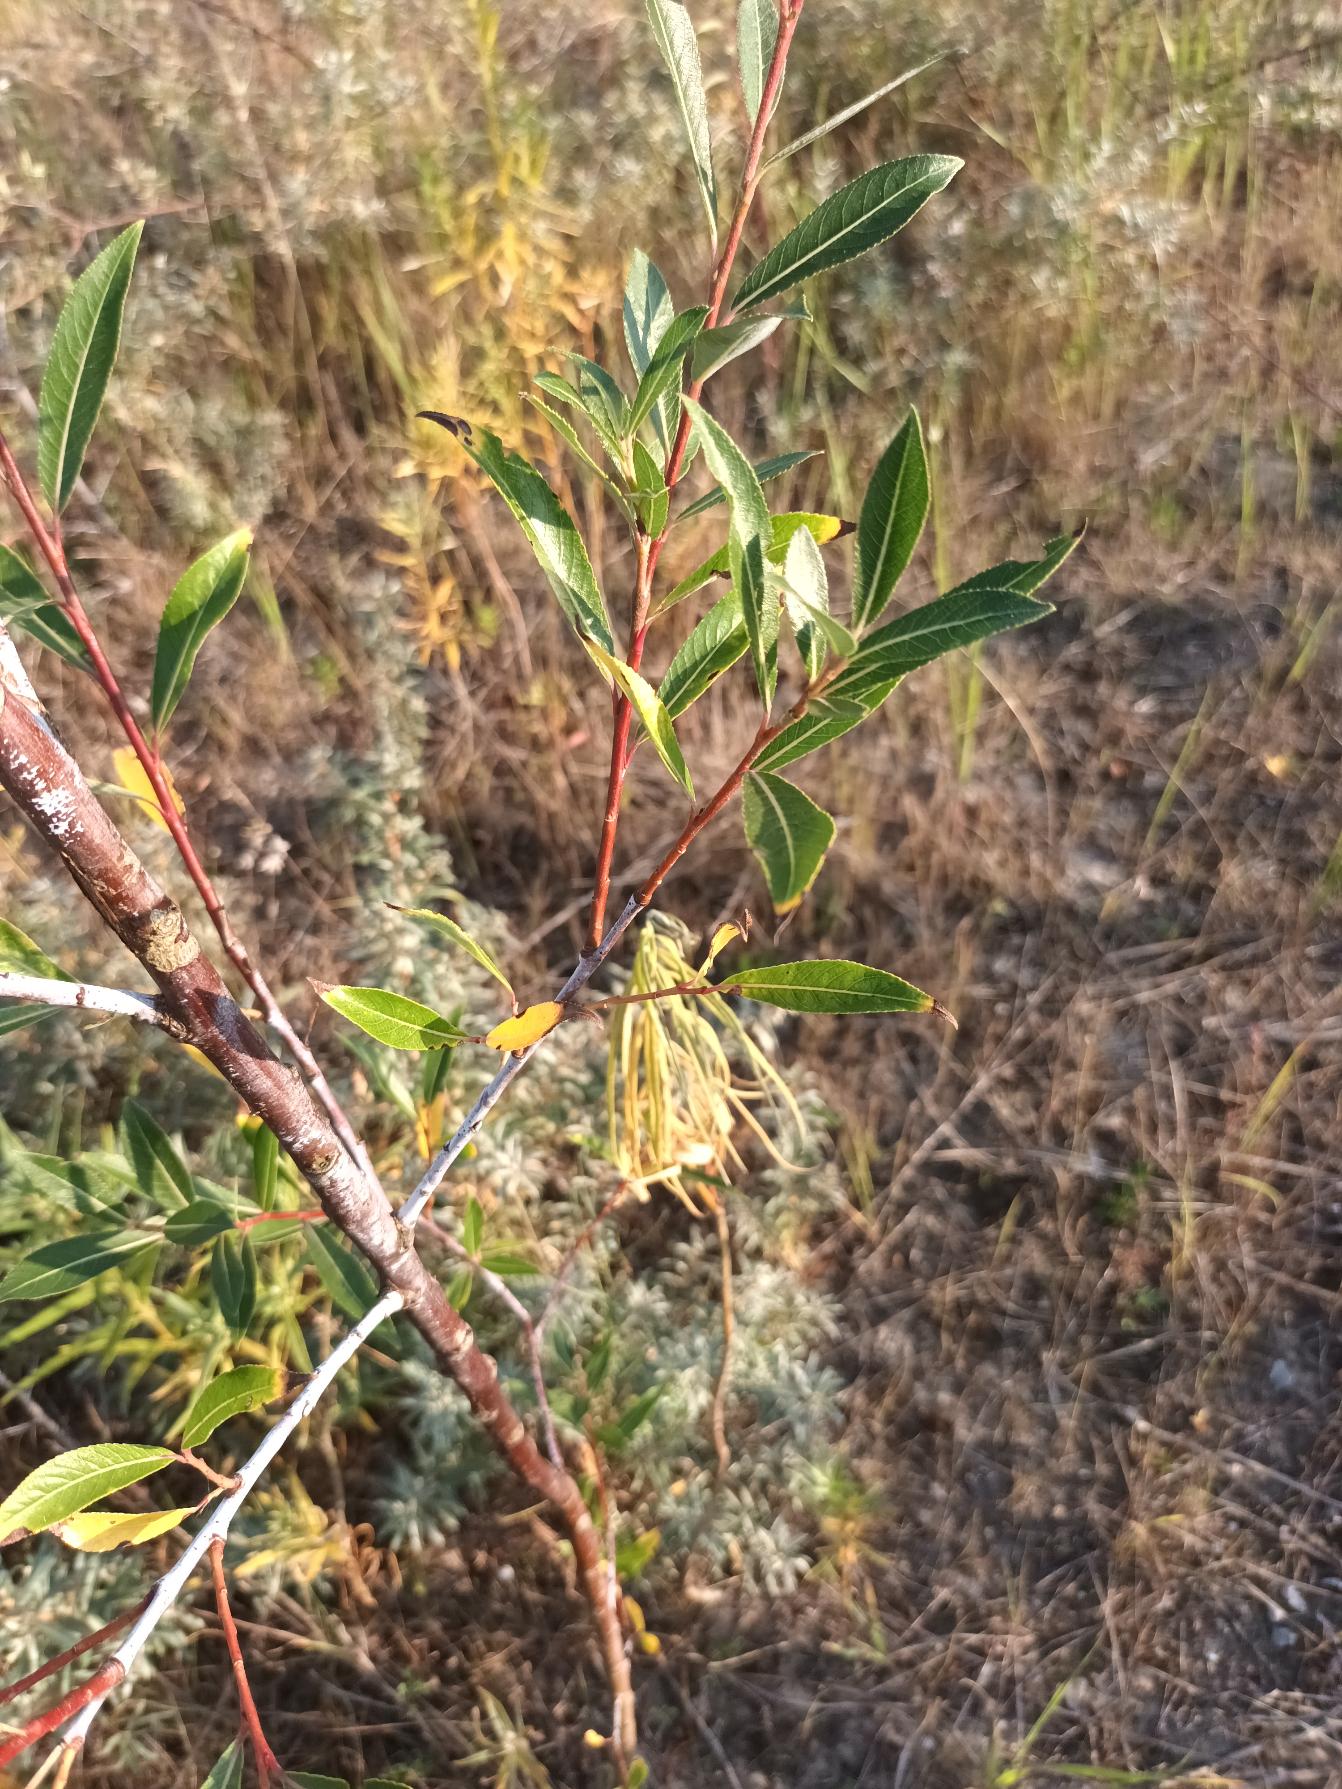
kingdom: Plantae
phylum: Tracheophyta
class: Magnoliopsida
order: Malpighiales
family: Salicaceae
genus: Salix
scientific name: Salix triandra
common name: Mandel-pil
